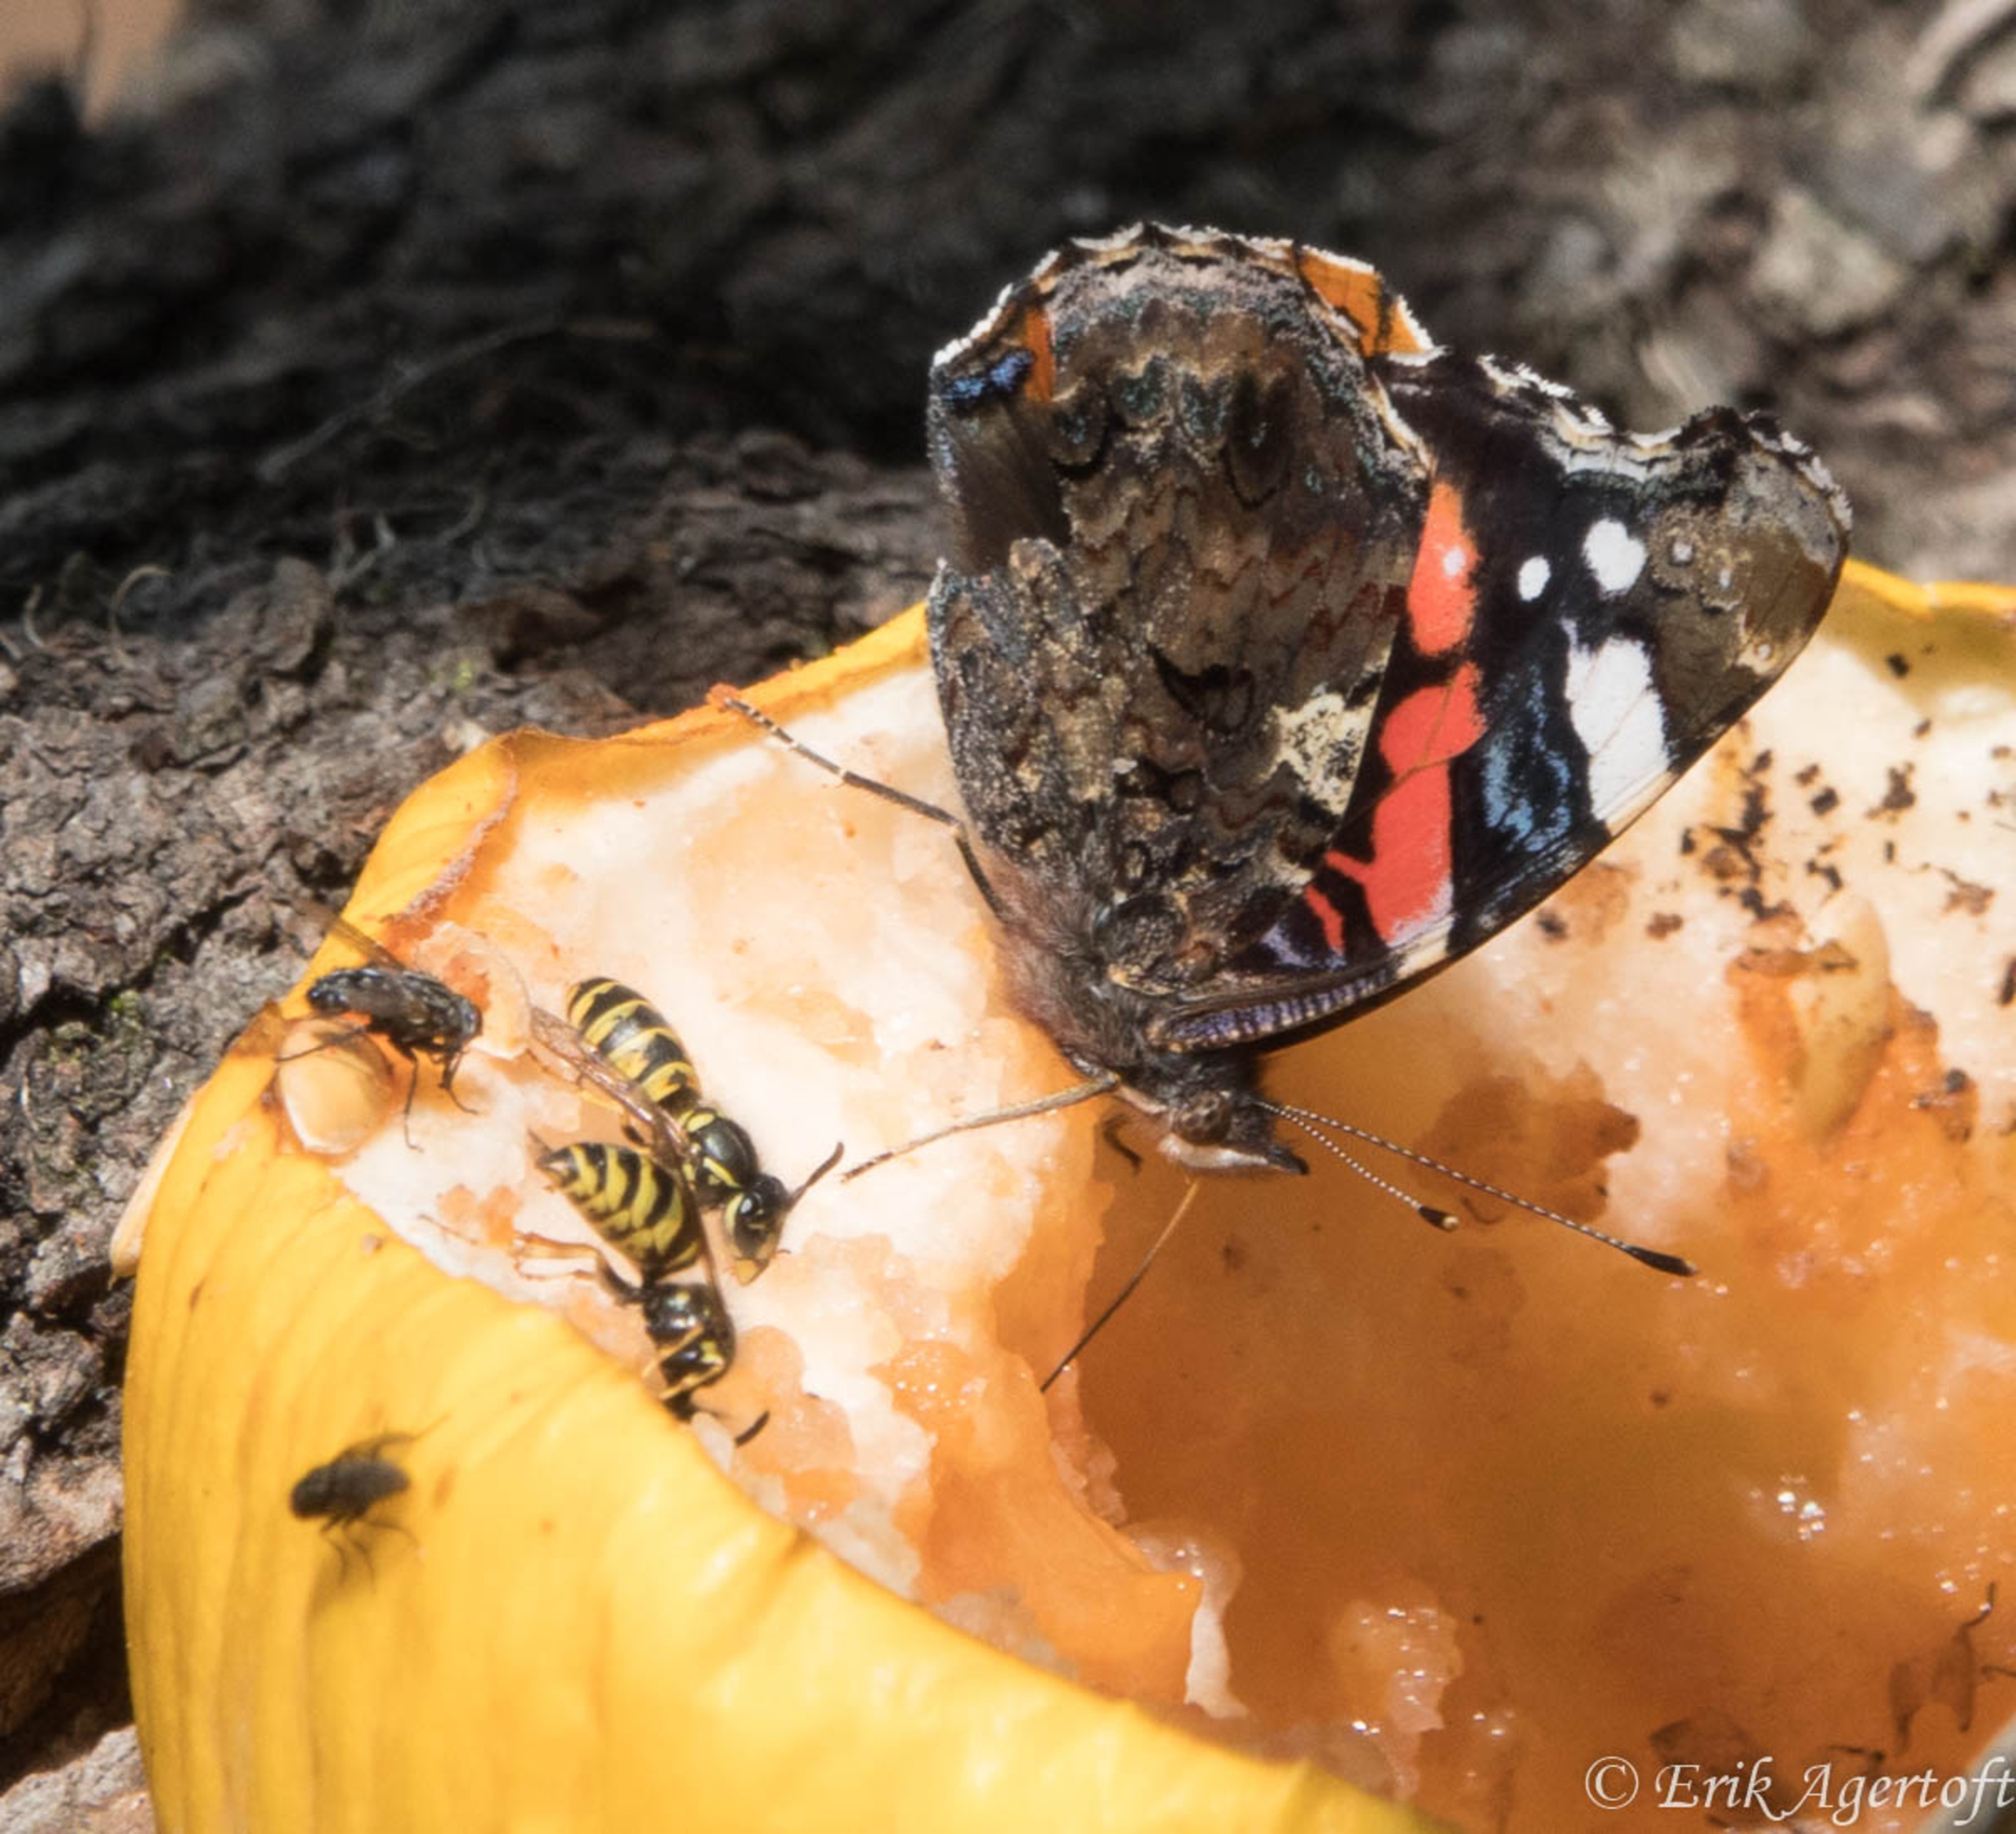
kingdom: Animalia
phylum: Arthropoda
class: Insecta
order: Lepidoptera
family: Nymphalidae
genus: Vanessa
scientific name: Vanessa atalanta
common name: Admiral
